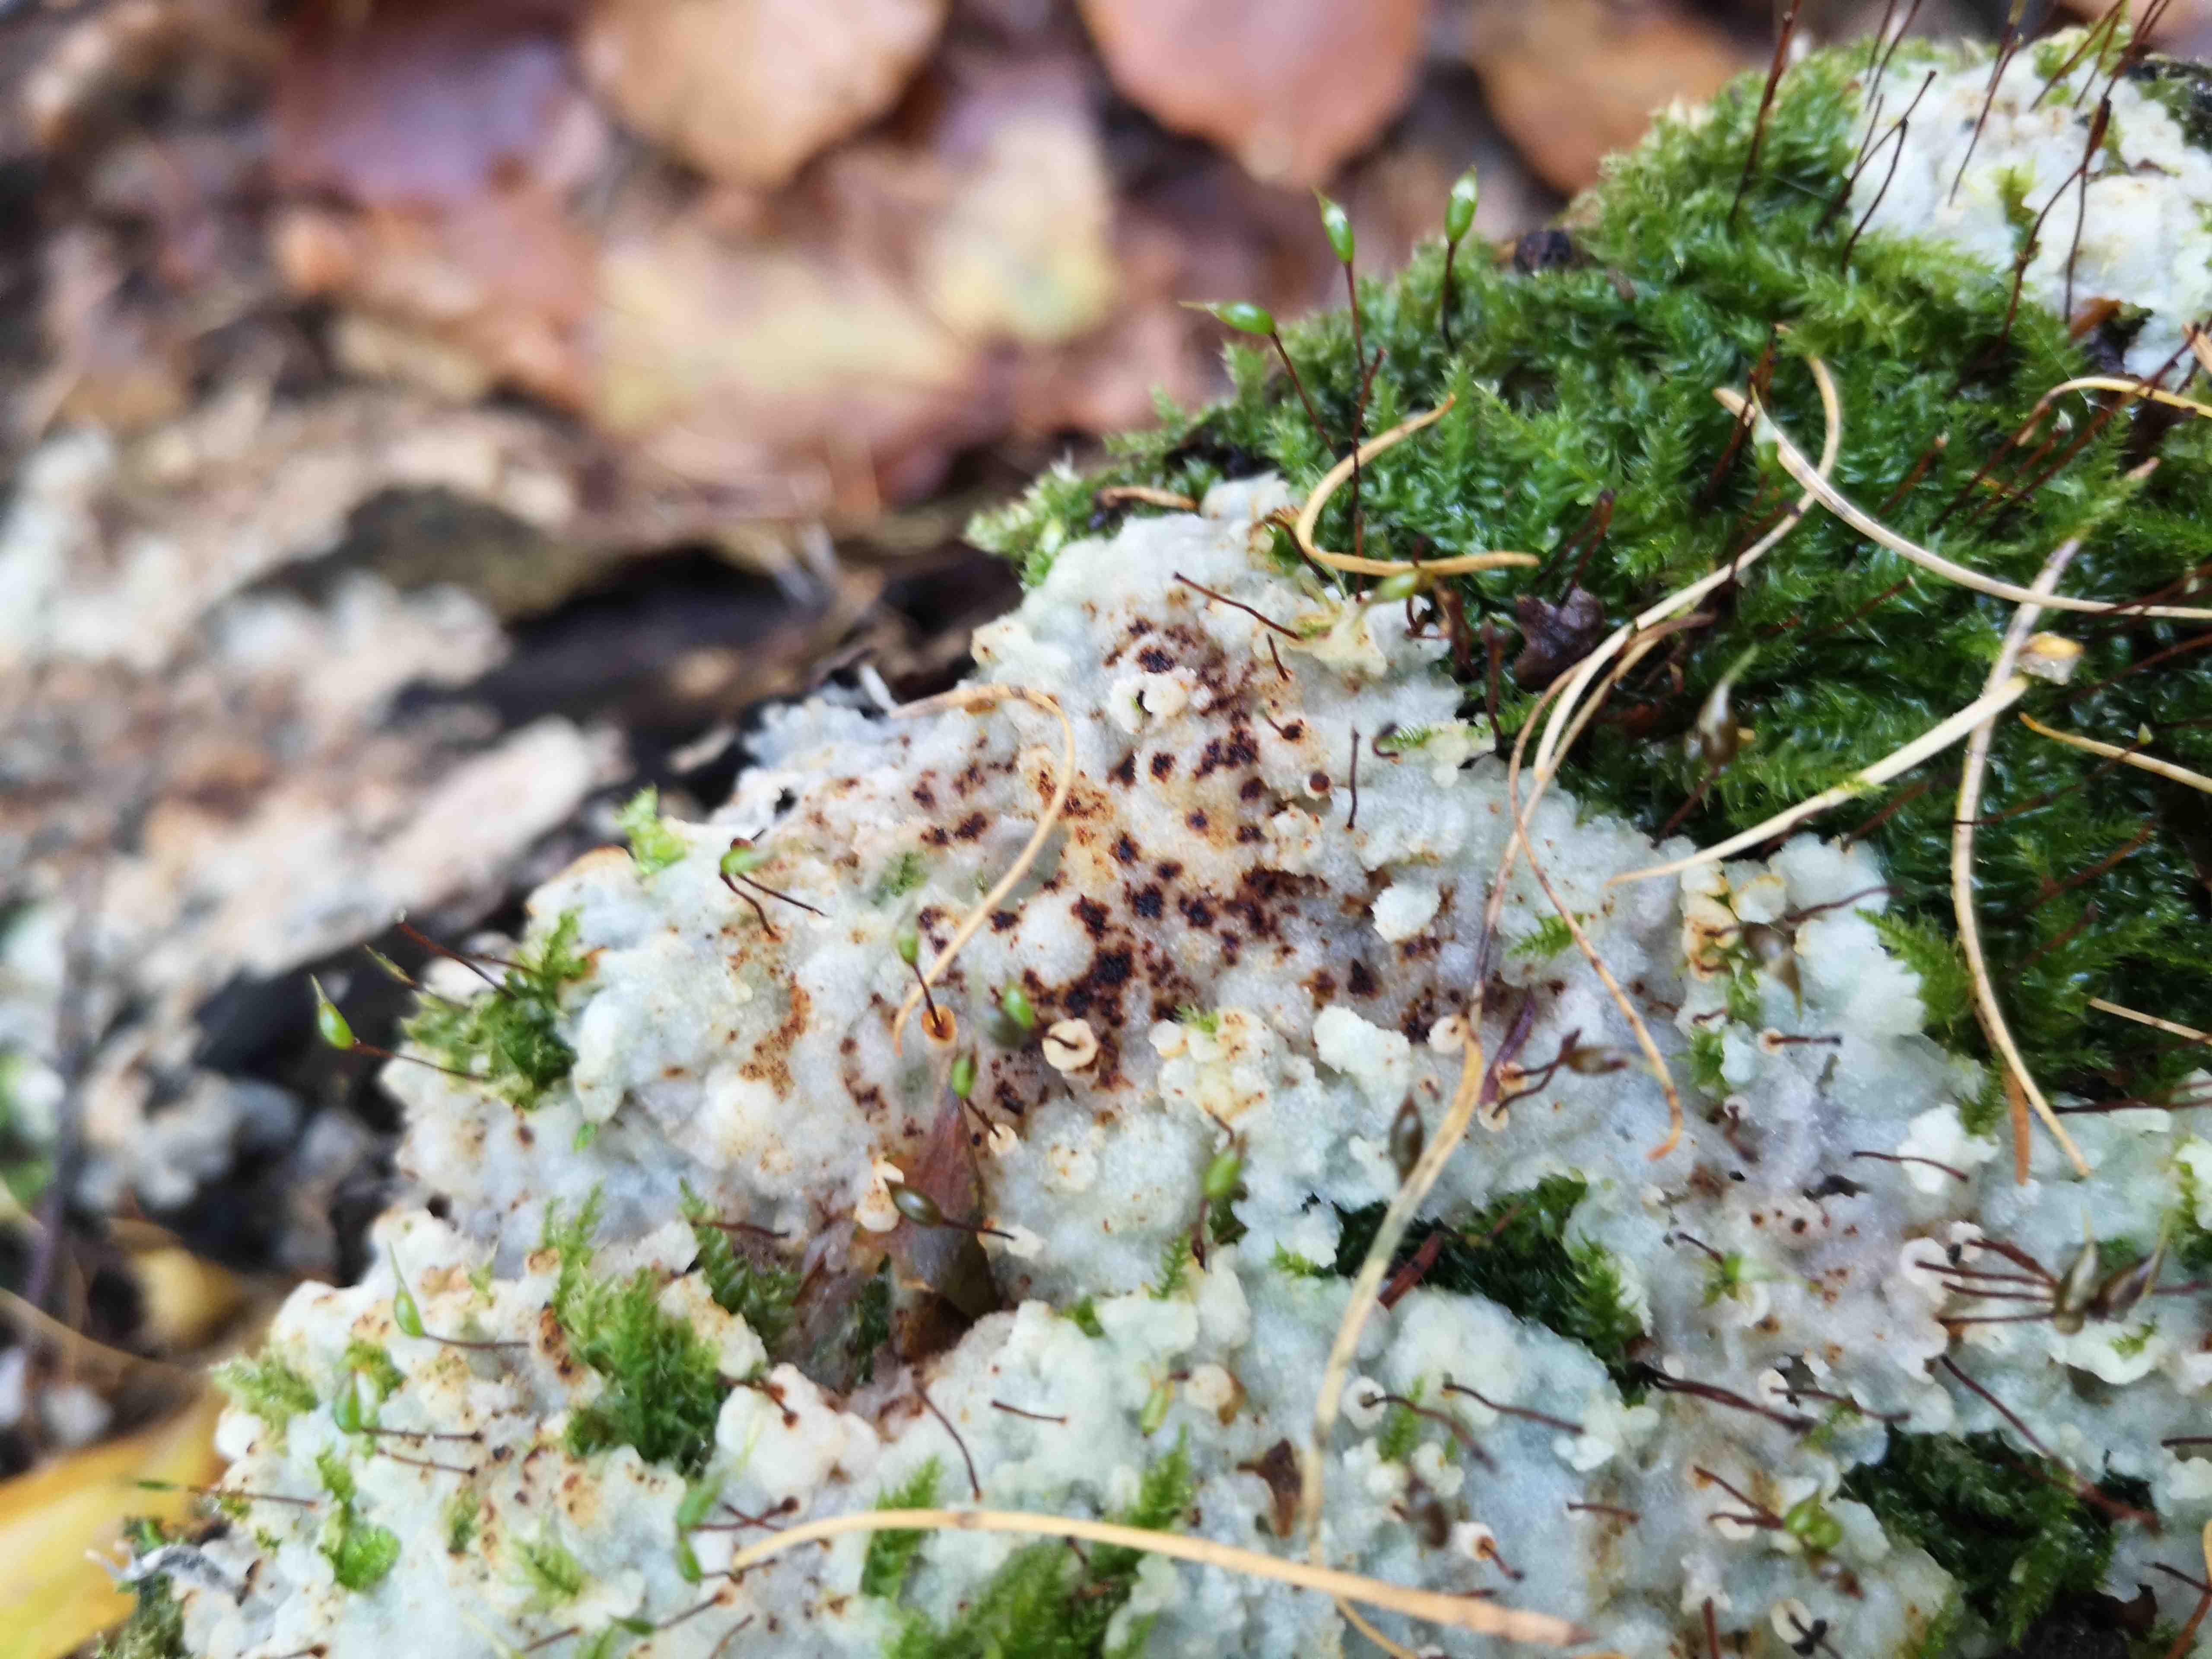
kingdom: Fungi
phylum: Basidiomycota
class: Agaricomycetes
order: Polyporales
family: Meruliaceae
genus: Physisporinus
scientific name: Physisporinus vitreus
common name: mastesvamp
